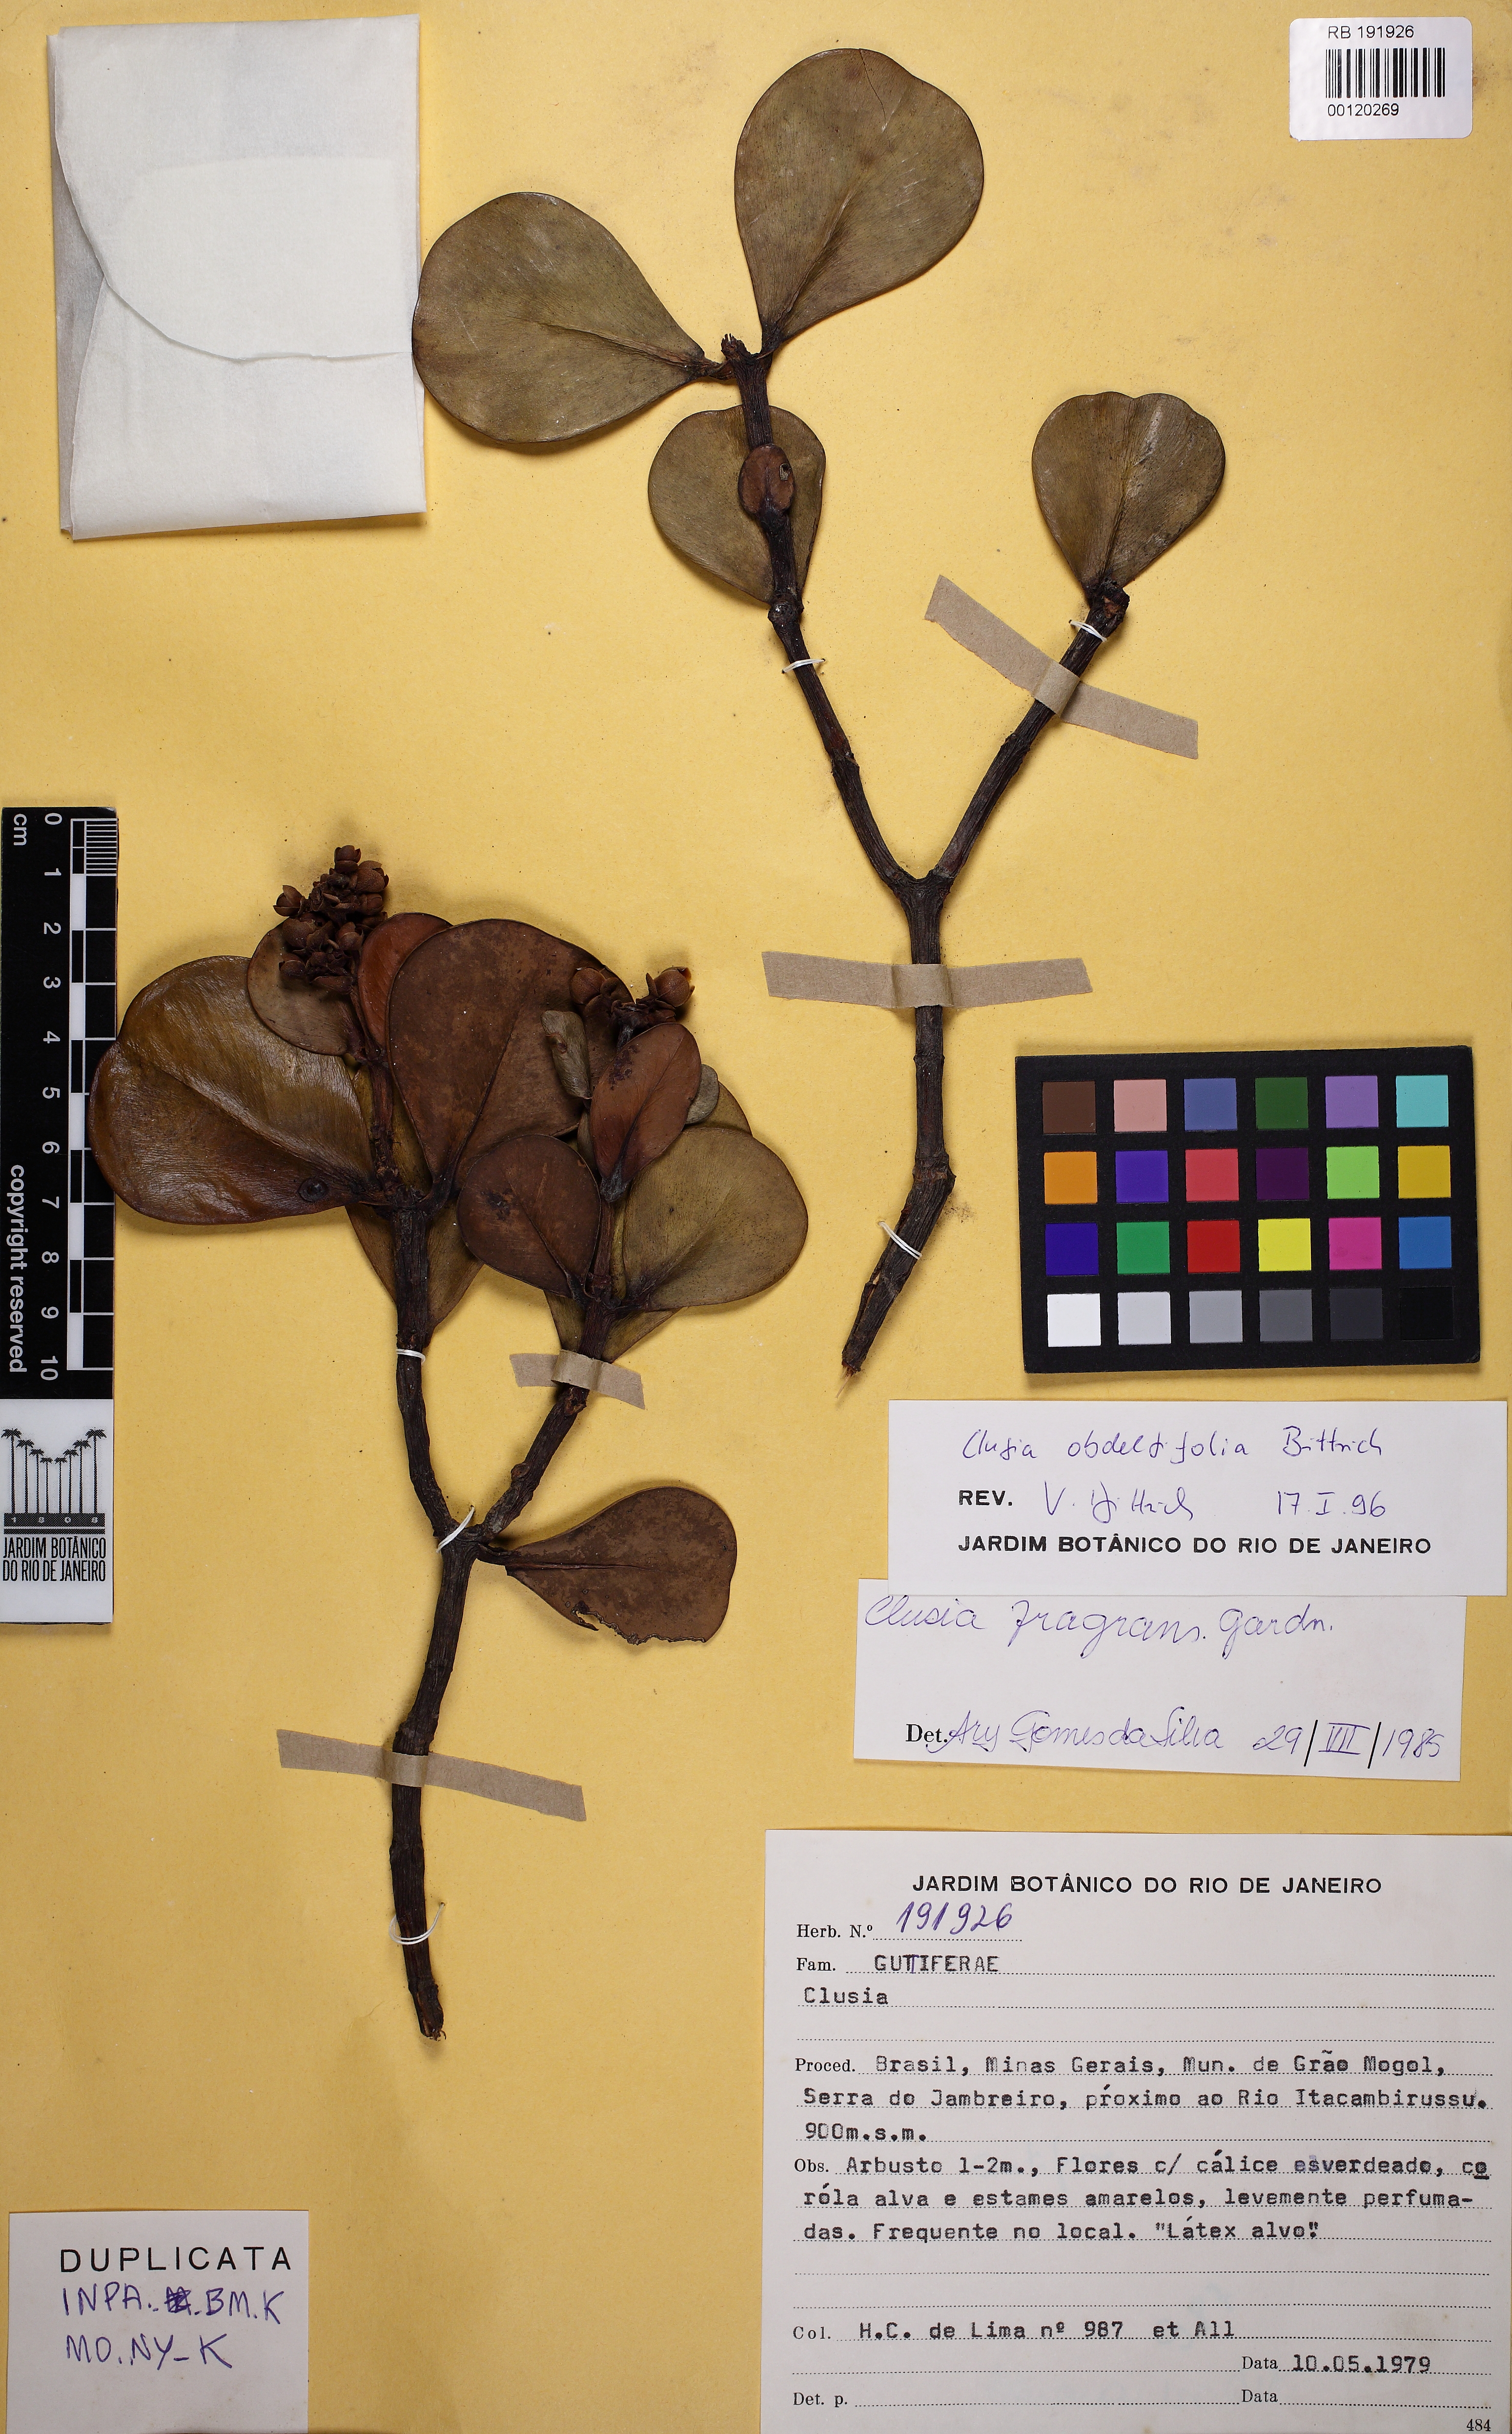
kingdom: Plantae
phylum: Tracheophyta
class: Magnoliopsida
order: Malpighiales
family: Clusiaceae
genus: Clusia
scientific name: Clusia obdeltifolia
